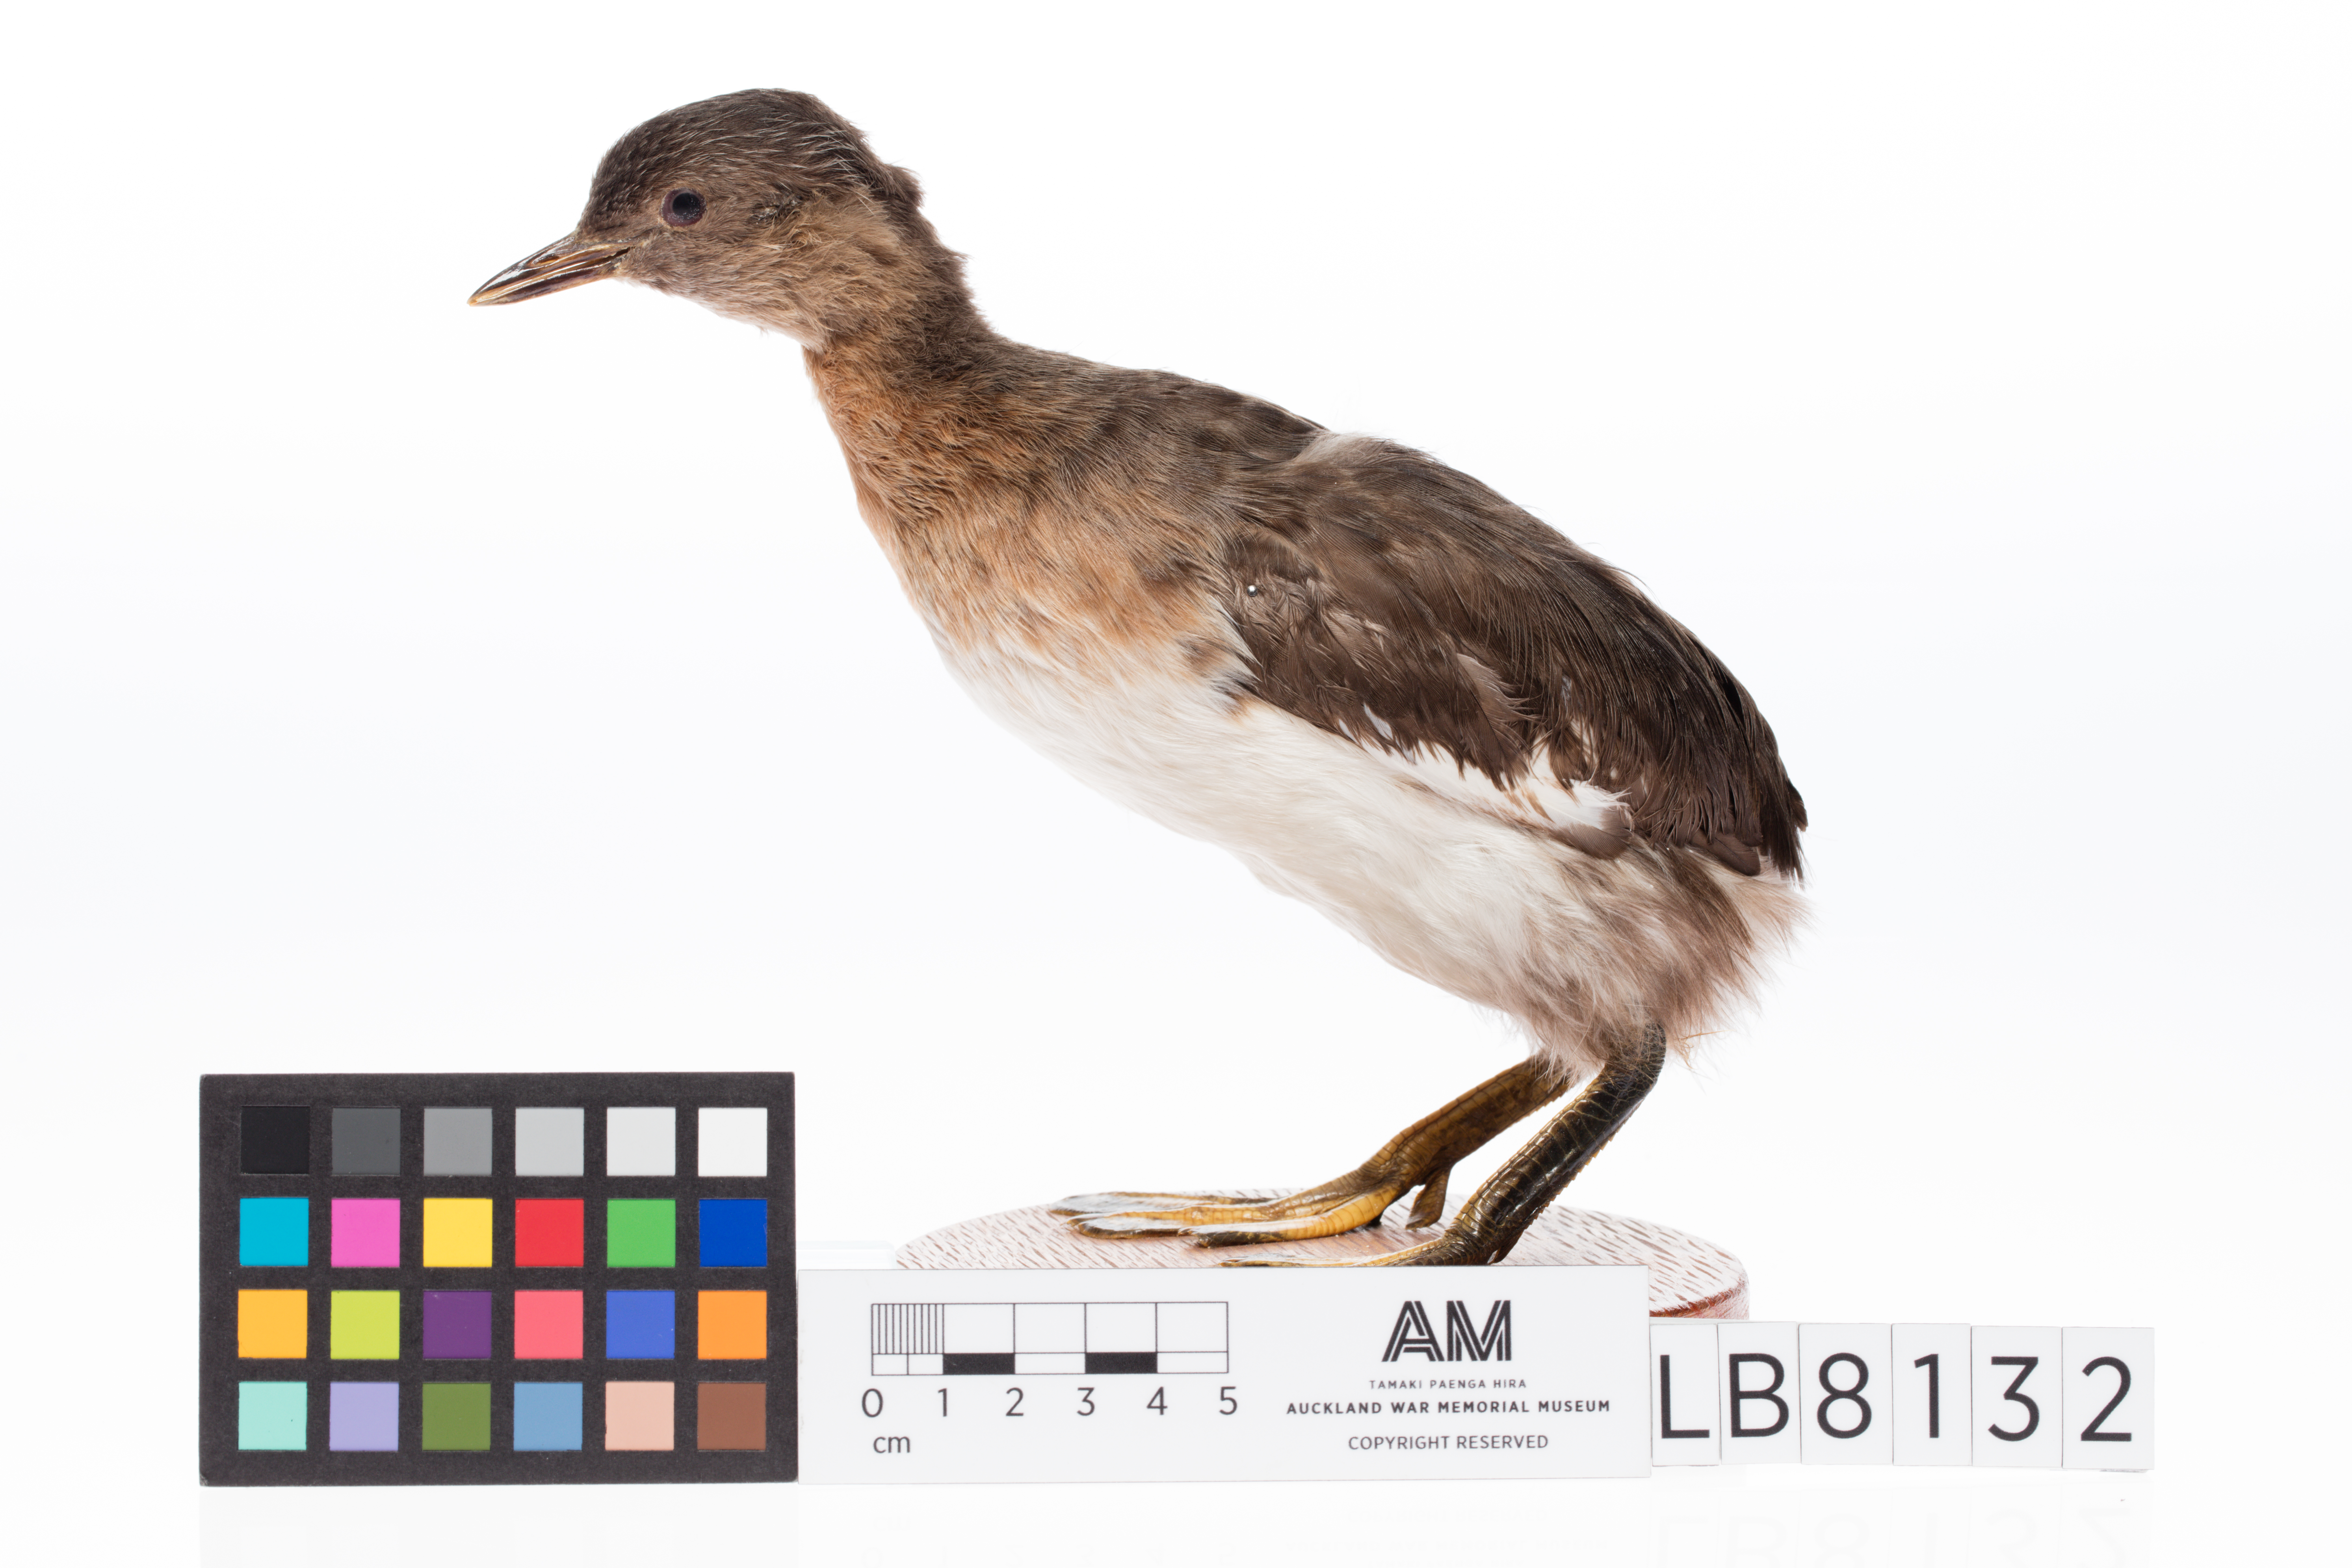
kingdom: Animalia
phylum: Chordata
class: Aves
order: Podicipediformes
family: Podicipedidae
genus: Poliocephalus
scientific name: Poliocephalus rufopectus
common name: New zealand grebe
